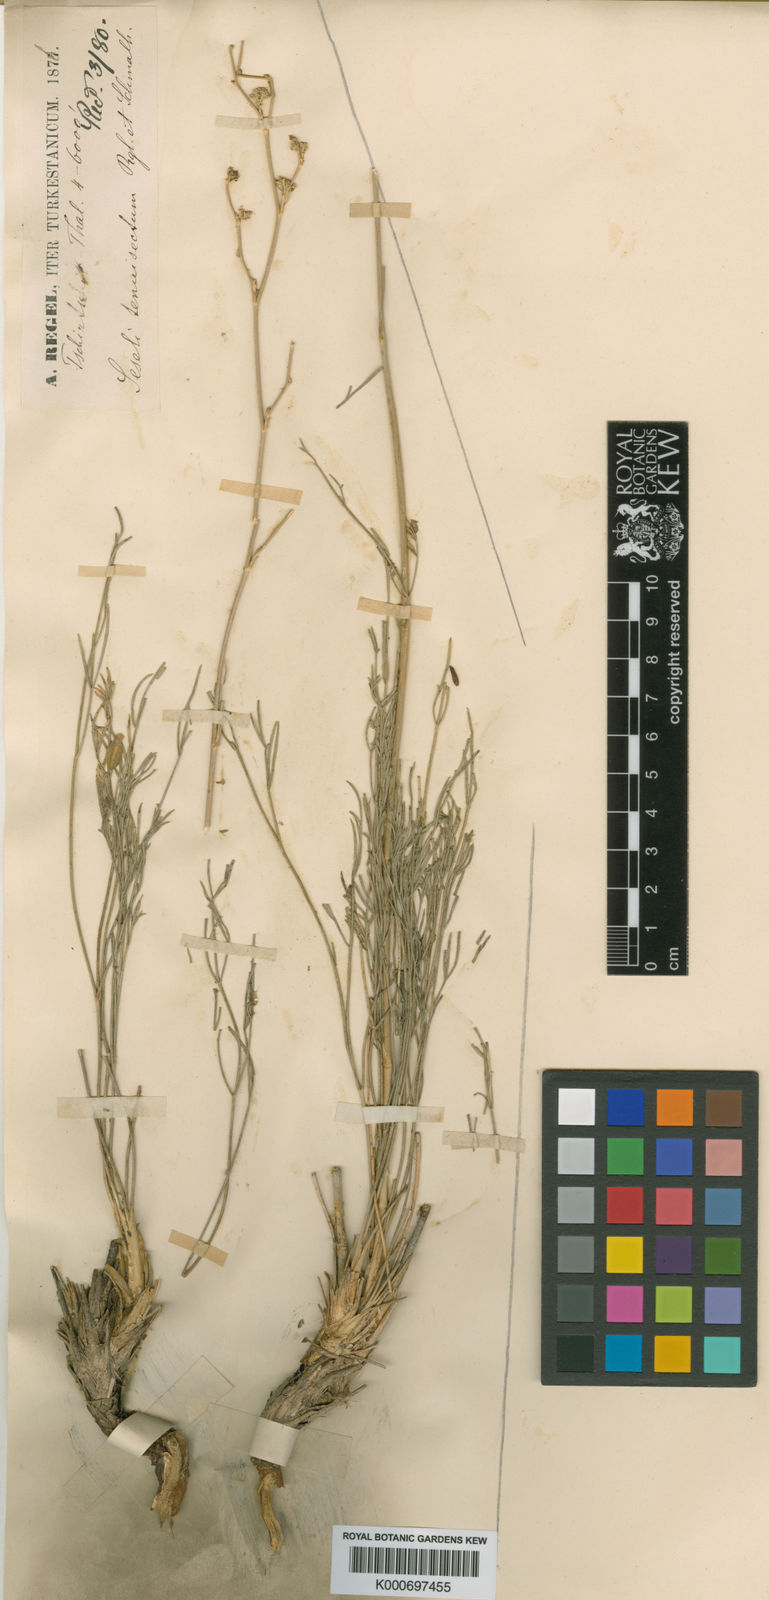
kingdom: Plantae
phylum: Tracheophyta
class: Magnoliopsida
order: Apiales
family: Apiaceae
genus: Seseli
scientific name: Seseli tenuisectum
